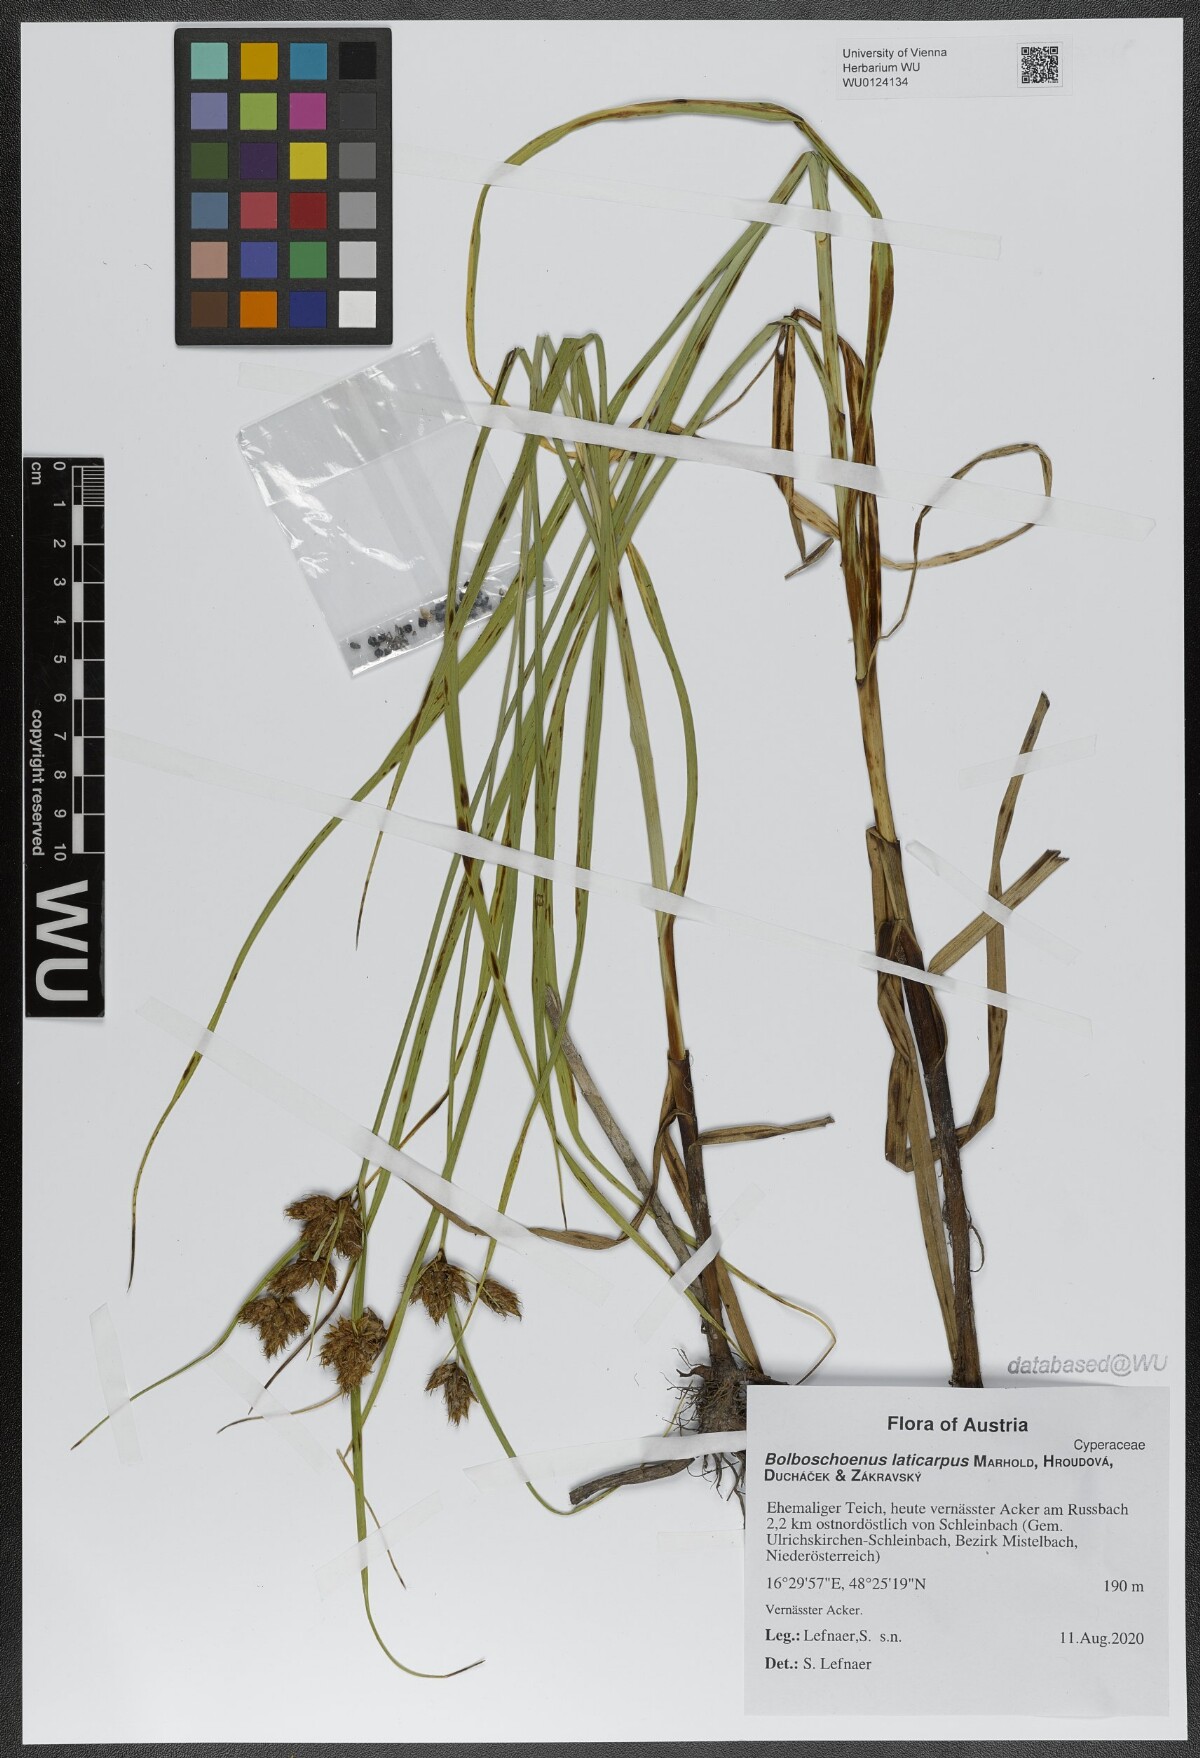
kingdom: Plantae
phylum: Tracheophyta
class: Liliopsida
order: Poales
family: Cyperaceae
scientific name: Cyperaceae
